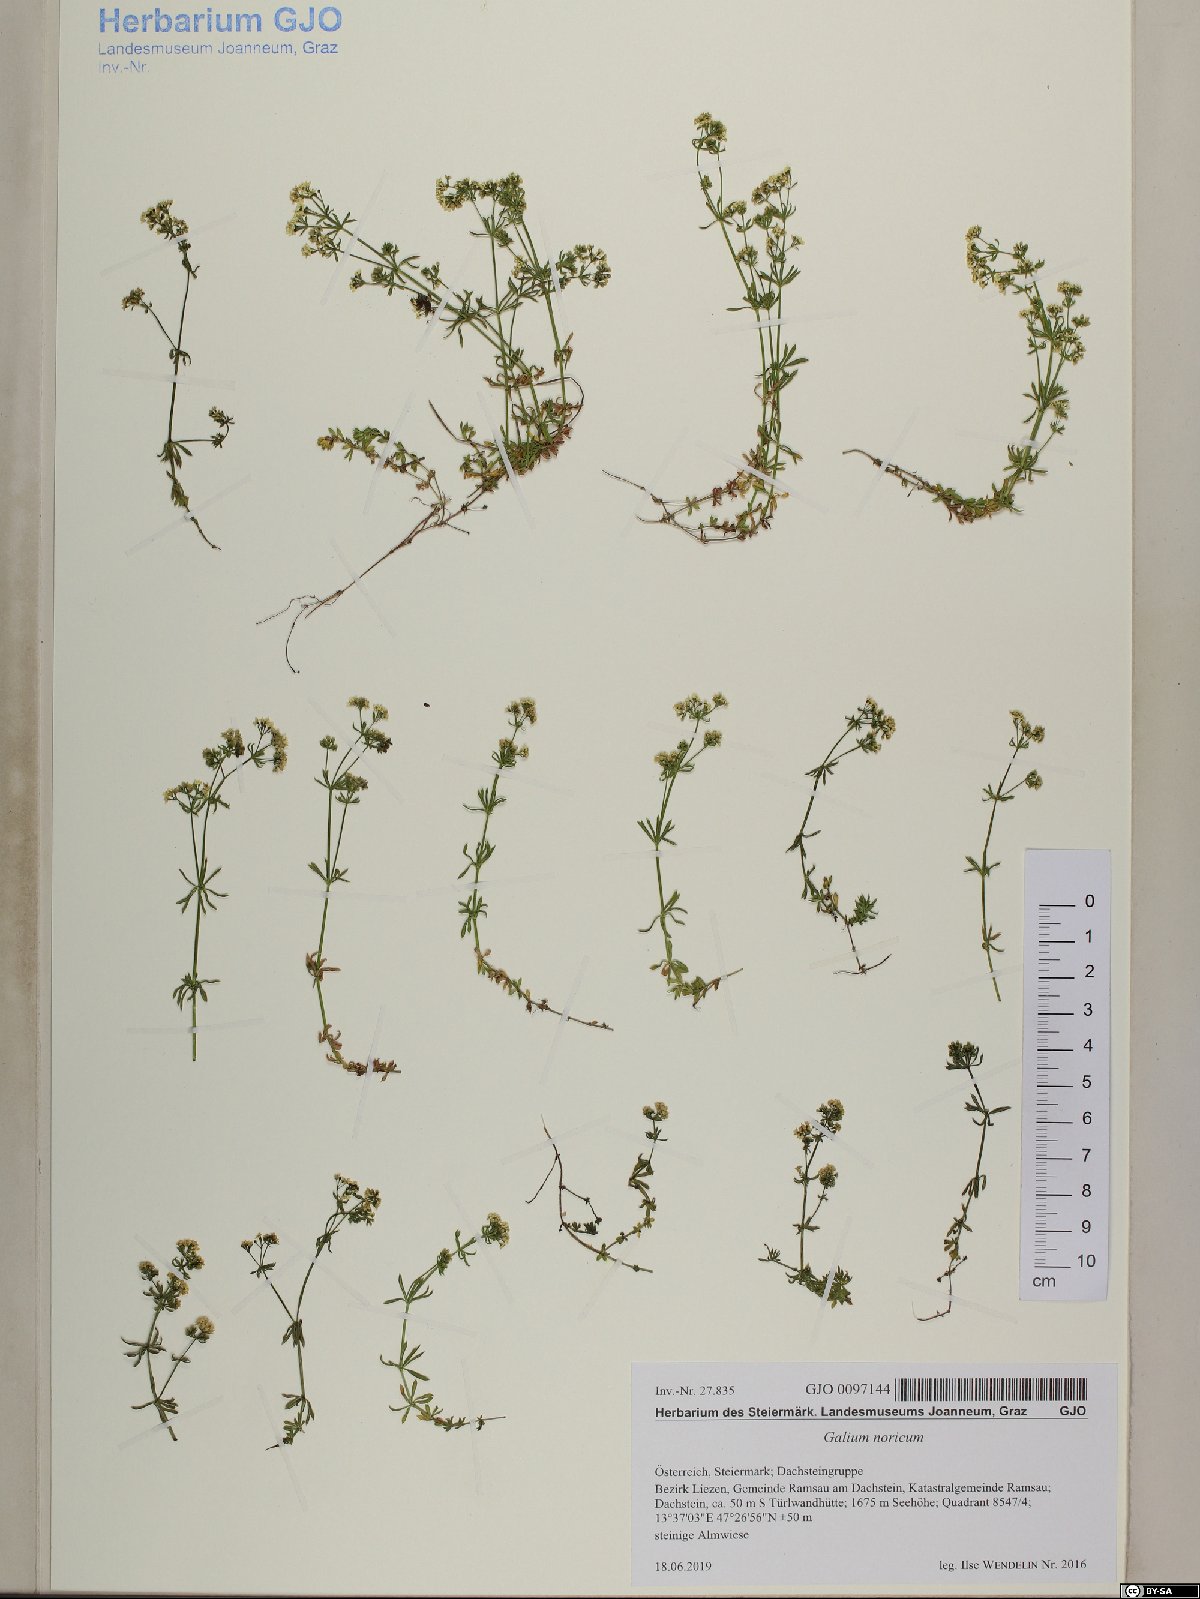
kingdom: Plantae
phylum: Tracheophyta
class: Magnoliopsida
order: Gentianales
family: Rubiaceae
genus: Galium
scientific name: Galium noricum
